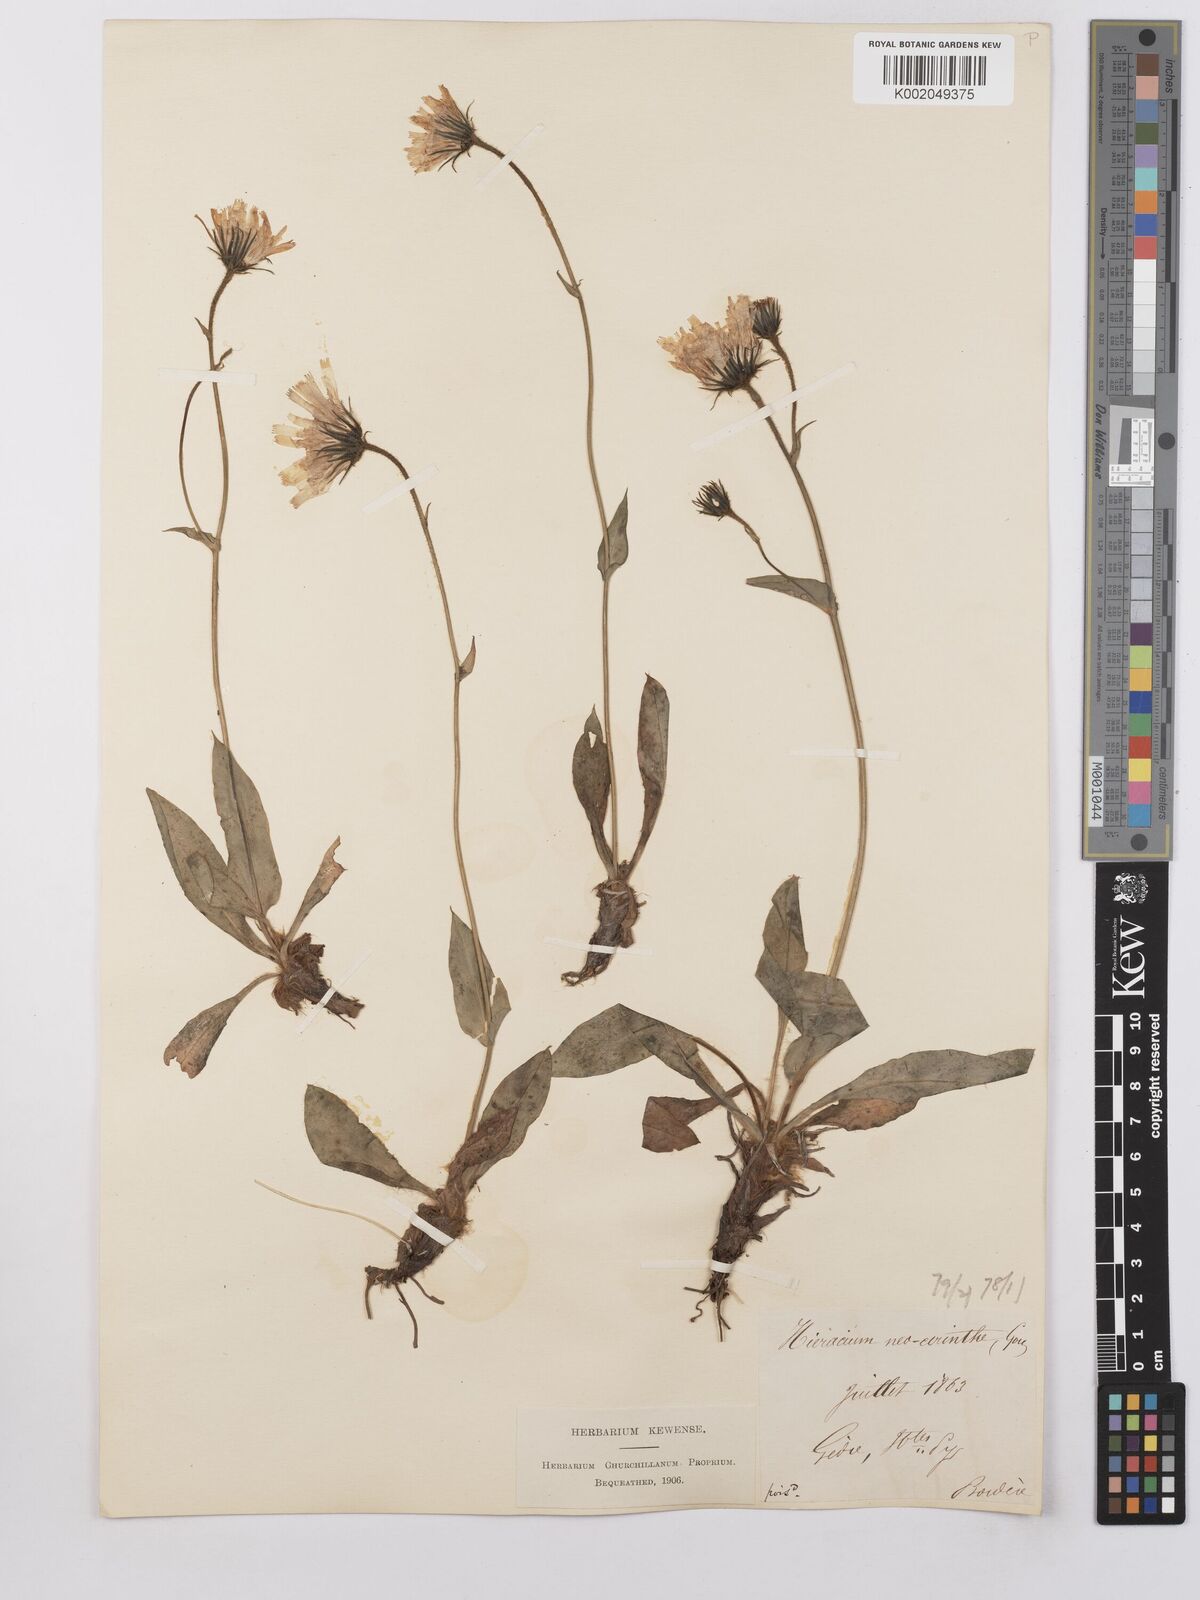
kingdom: Plantae
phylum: Tracheophyta
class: Magnoliopsida
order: Asterales
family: Asteraceae
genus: Hieracium
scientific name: Hieracium cerinthoides
